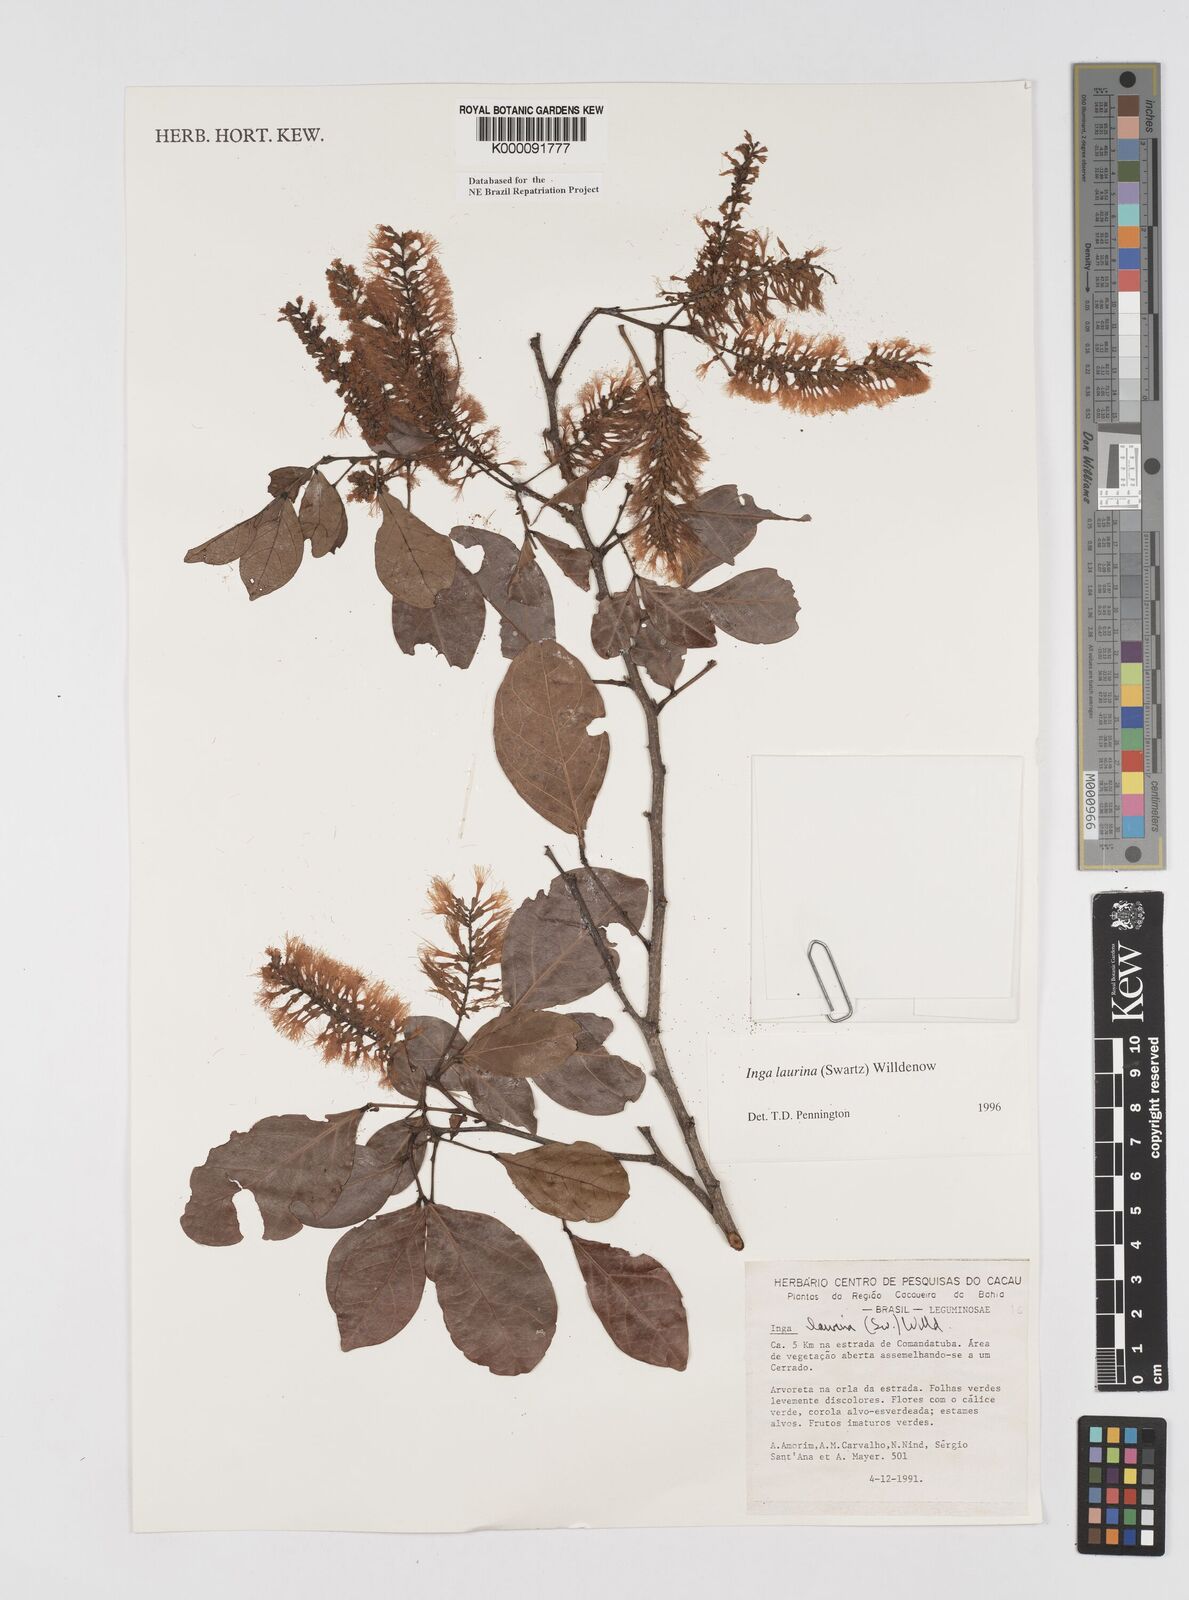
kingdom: Plantae
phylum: Tracheophyta
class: Magnoliopsida
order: Fabales
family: Fabaceae
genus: Inga
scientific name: Inga laurina
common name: Red wood
